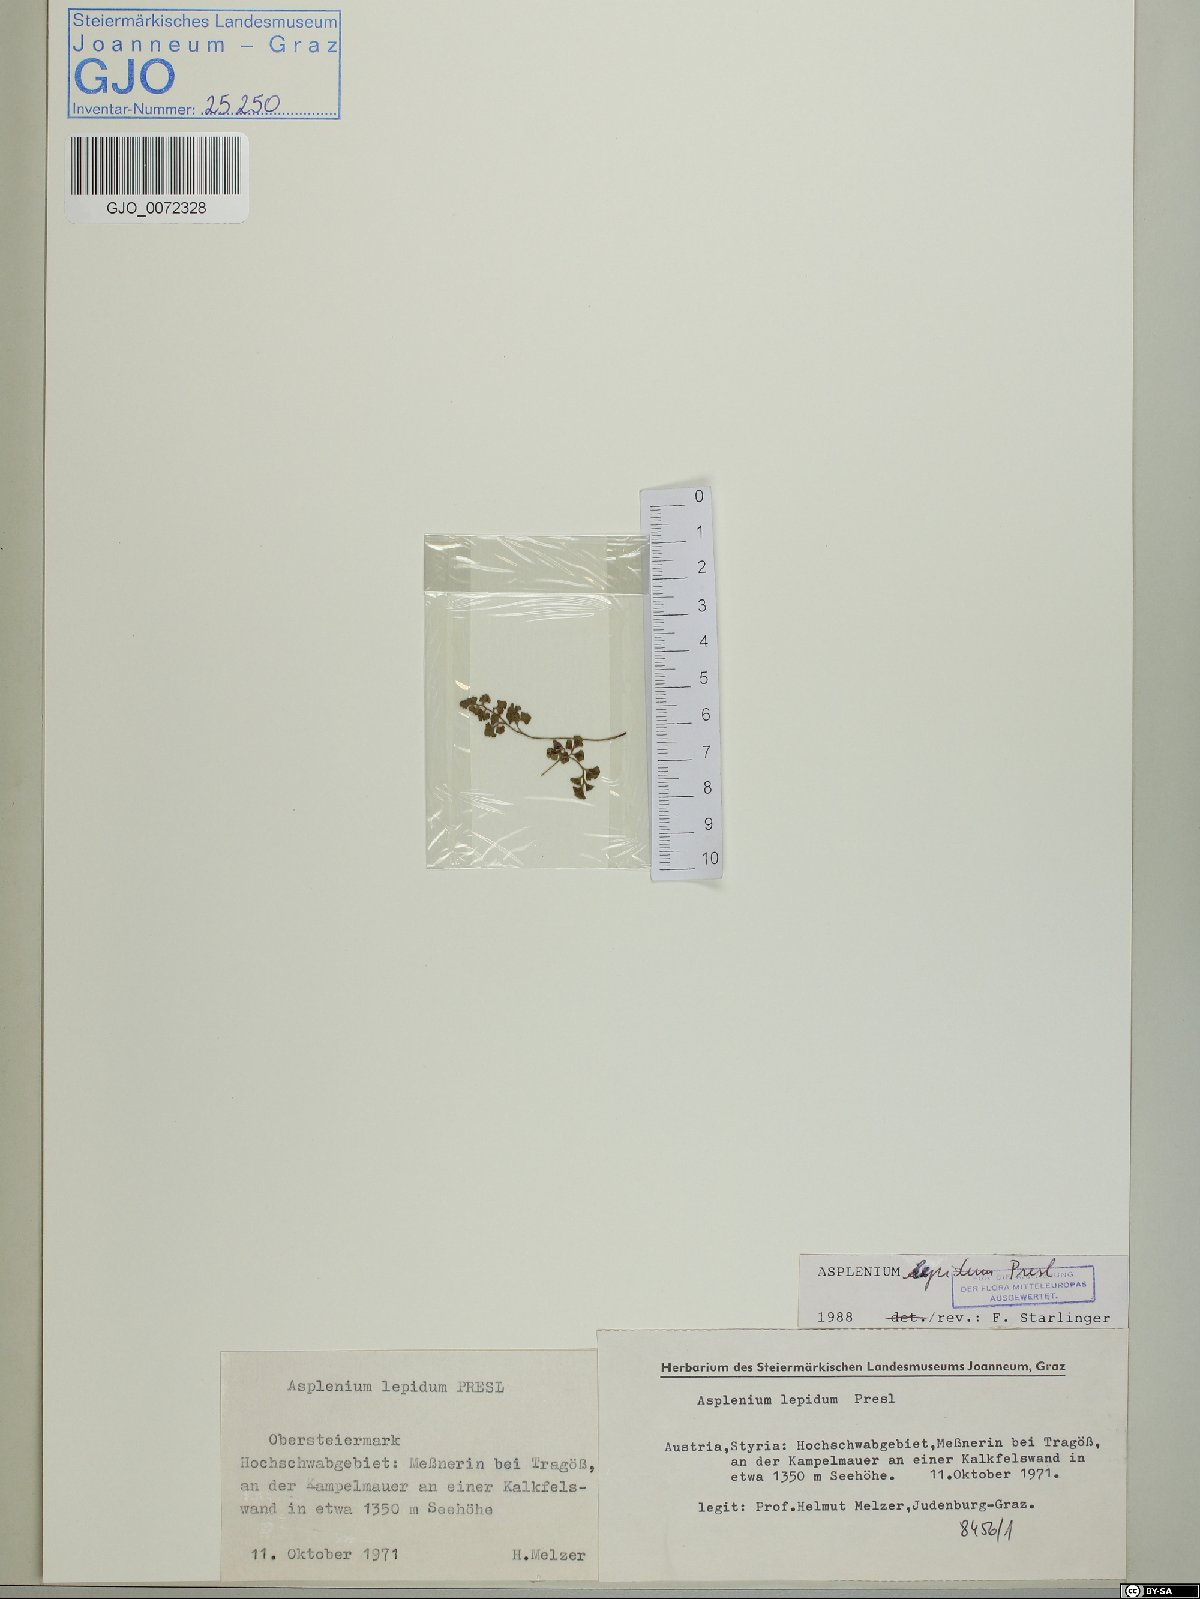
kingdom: Plantae
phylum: Tracheophyta
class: Polypodiopsida
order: Polypodiales
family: Aspleniaceae
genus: Asplenium
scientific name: Asplenium lepidum
